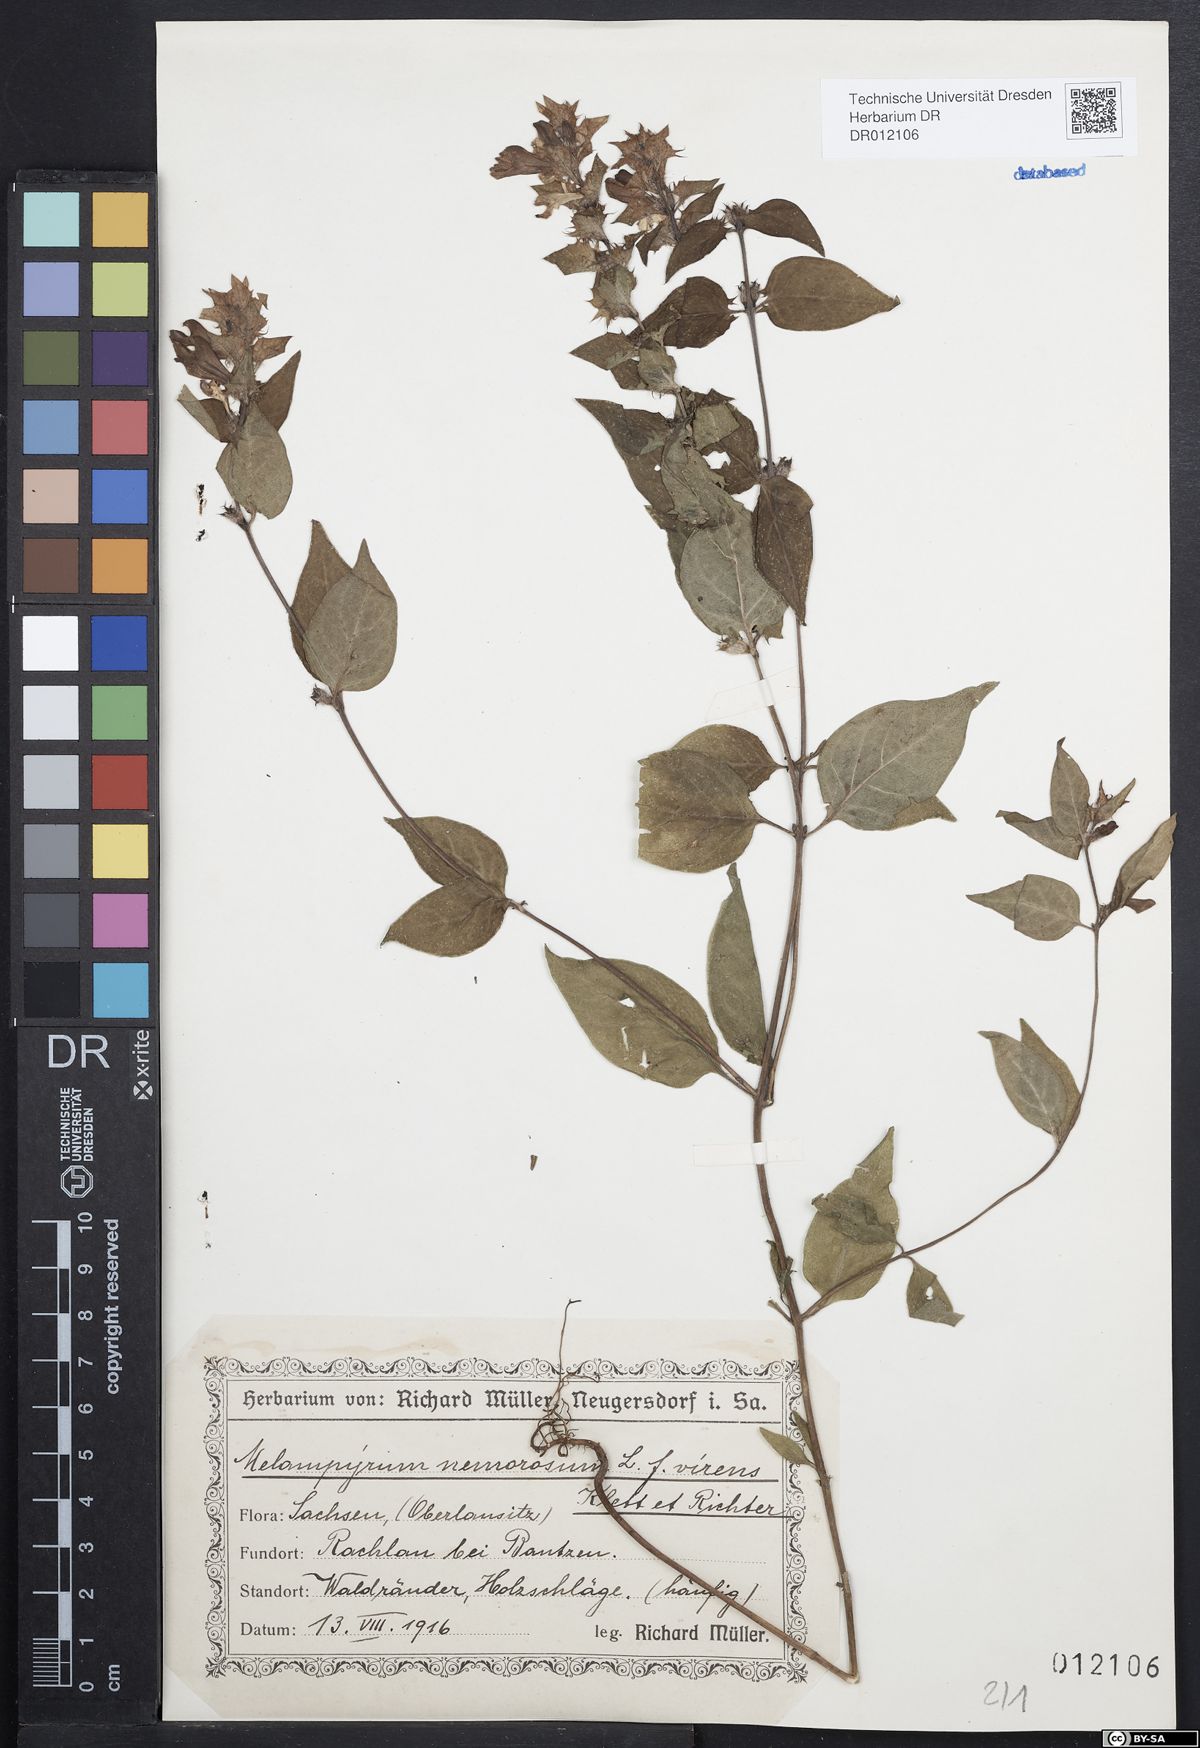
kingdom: Plantae
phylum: Tracheophyta
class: Magnoliopsida
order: Lamiales
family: Orobanchaceae
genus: Melampyrum
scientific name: Melampyrum nemorosum
